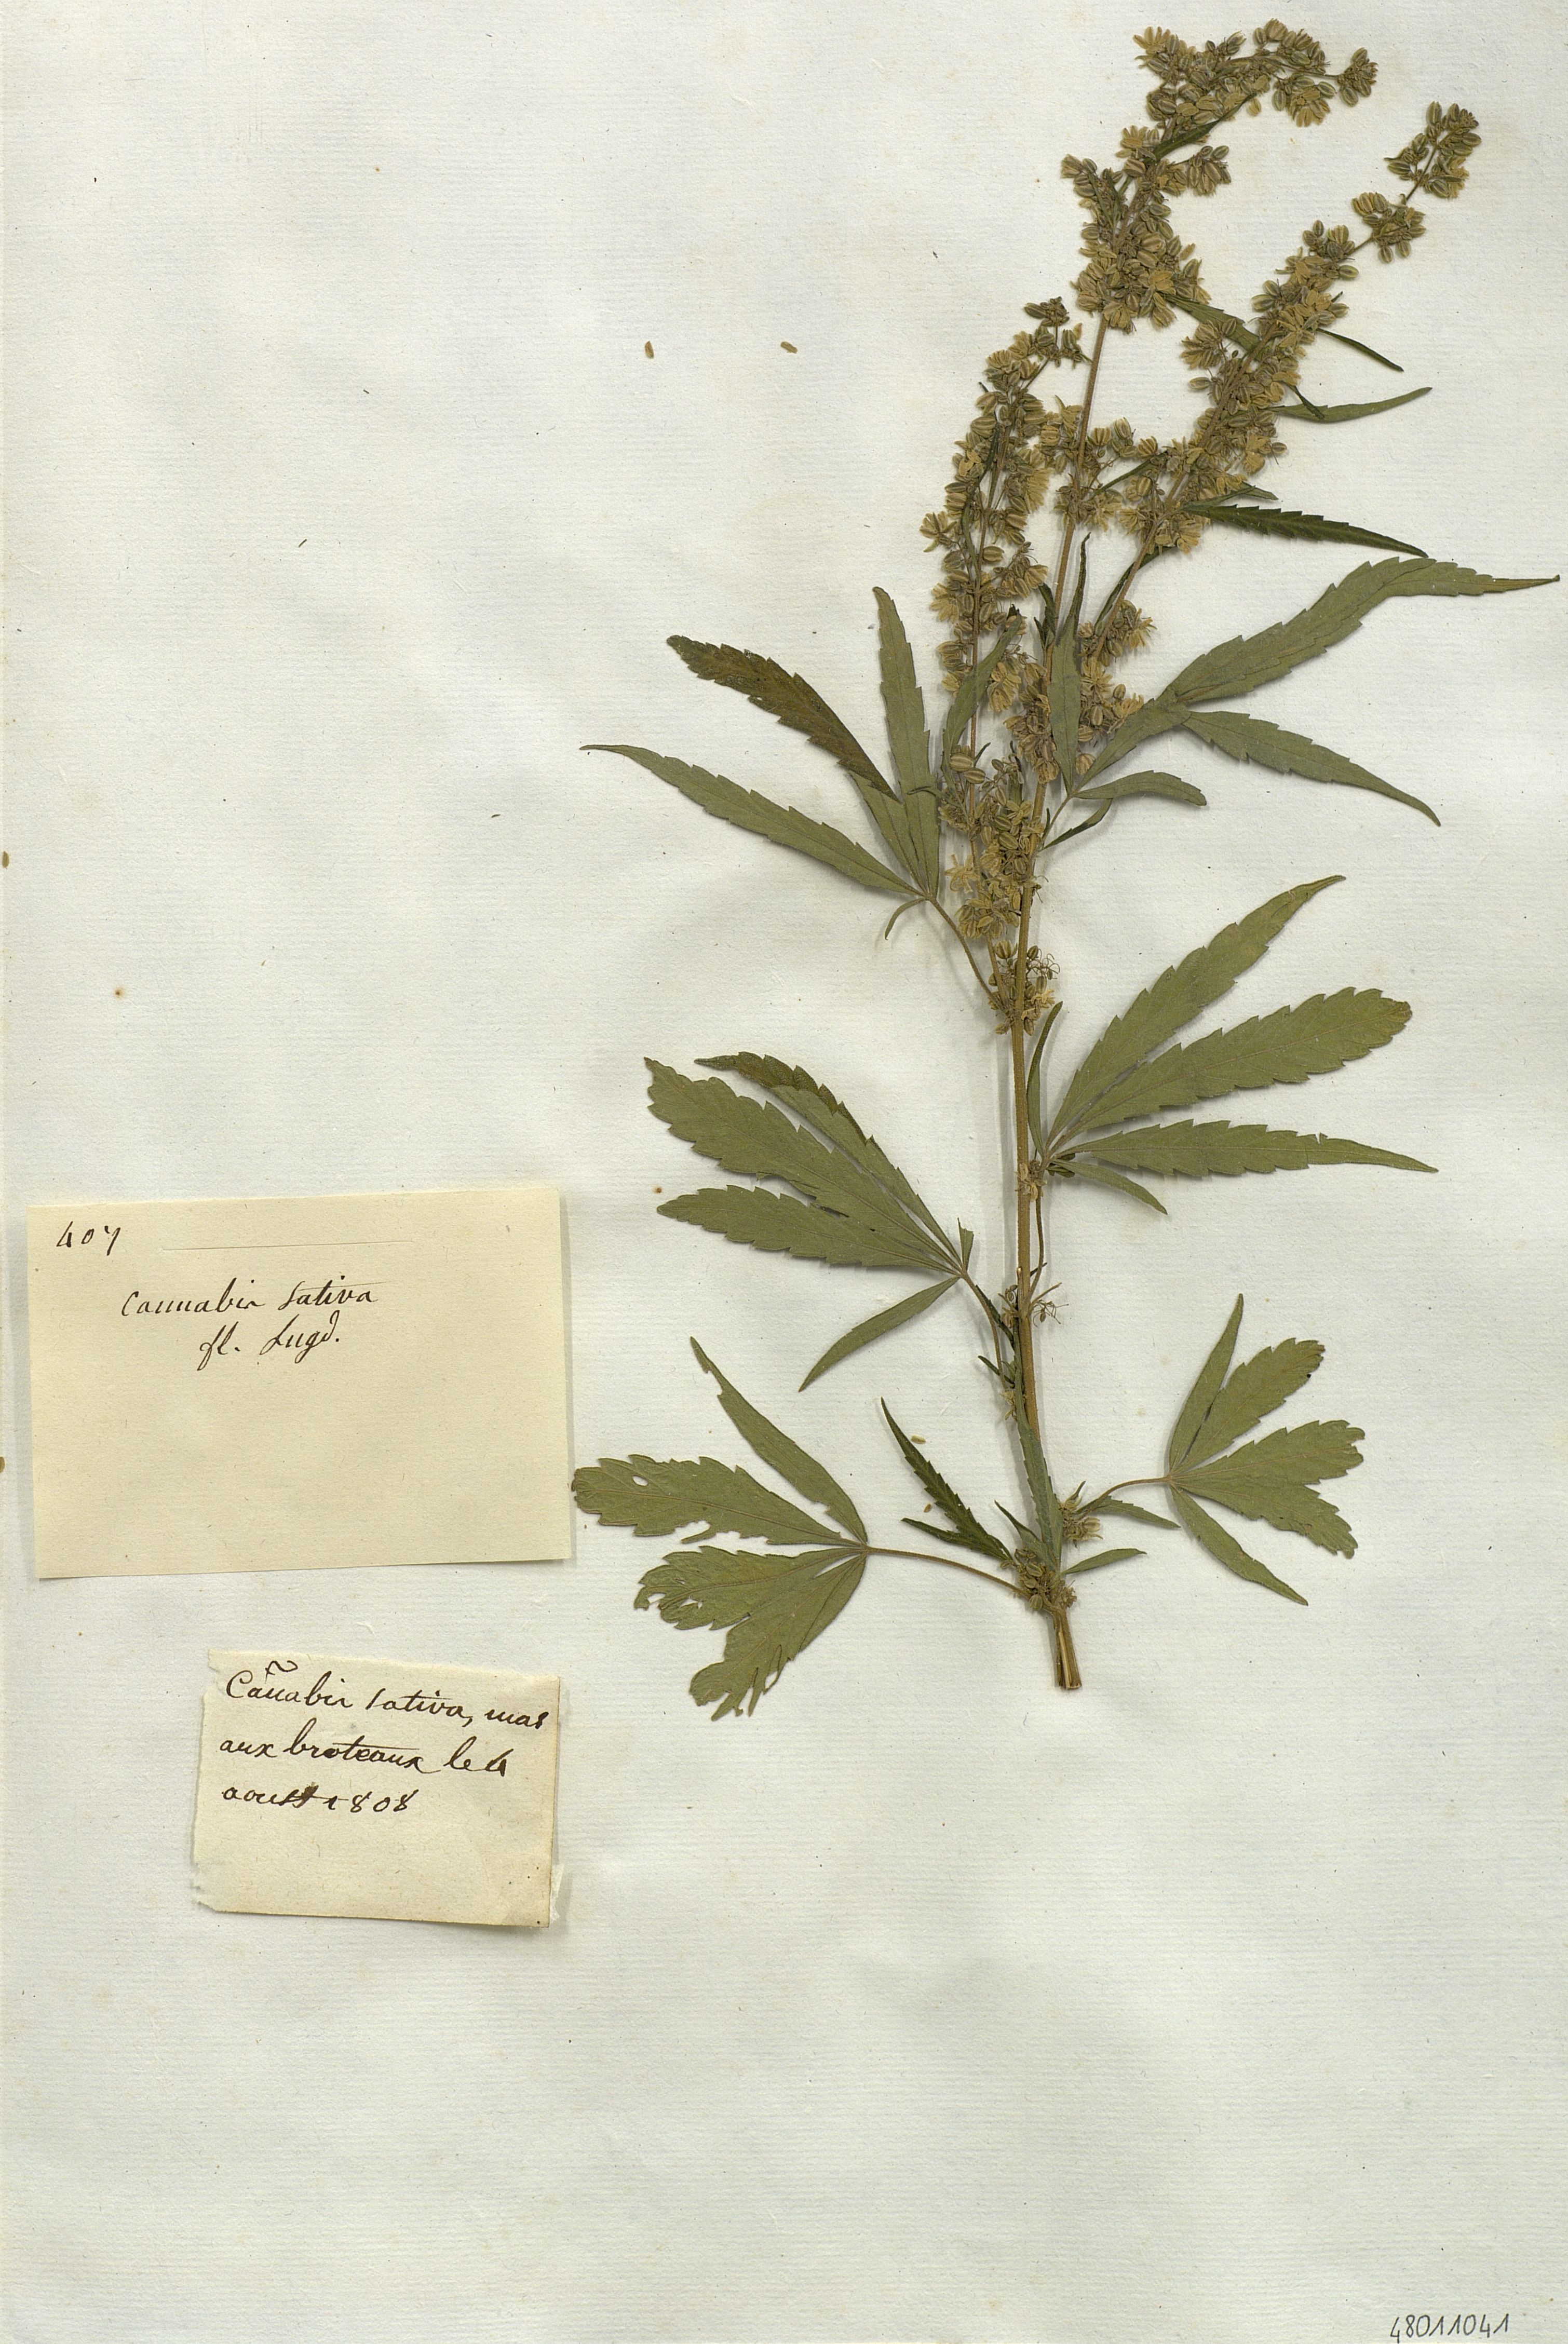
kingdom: Plantae
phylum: Tracheophyta
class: Magnoliopsida
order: Rosales
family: Cannabaceae
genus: Cannabis
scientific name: Cannabis sativa
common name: Hemp
